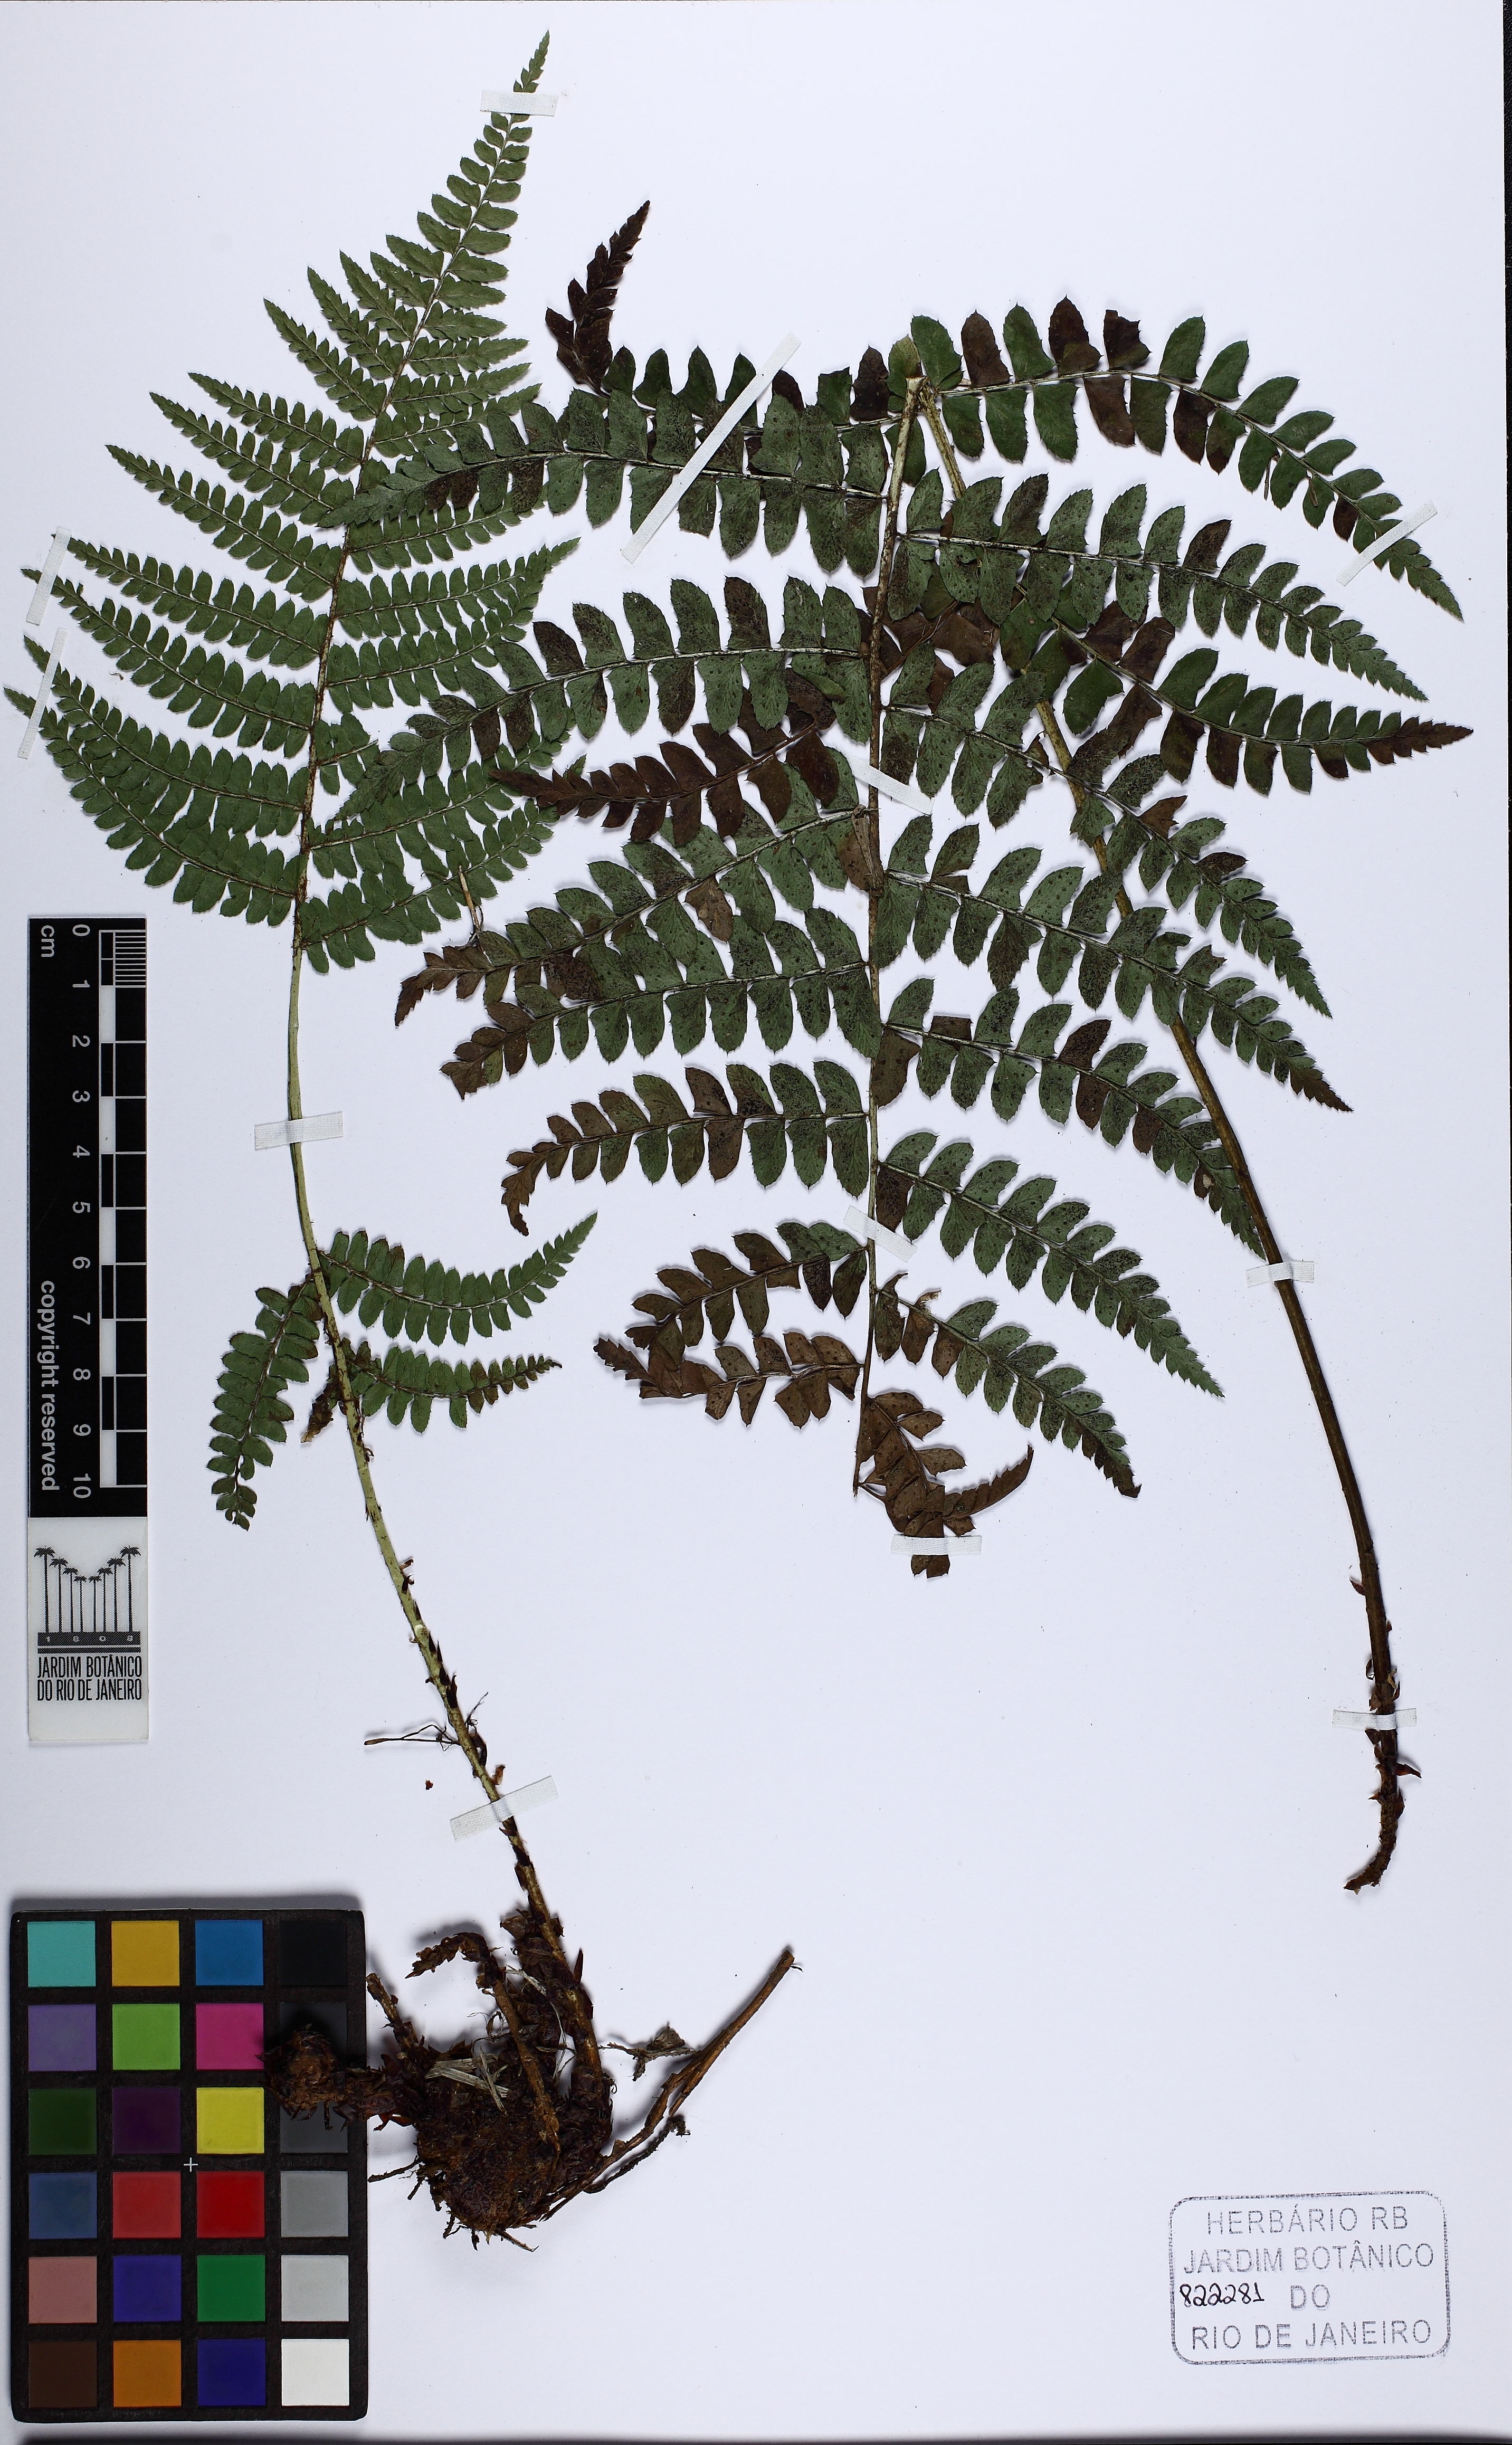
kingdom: Plantae
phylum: Tracheophyta
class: Polypodiopsida
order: Polypodiales
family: Dryopteridaceae
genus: Polystichum
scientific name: Polystichum platylepis
